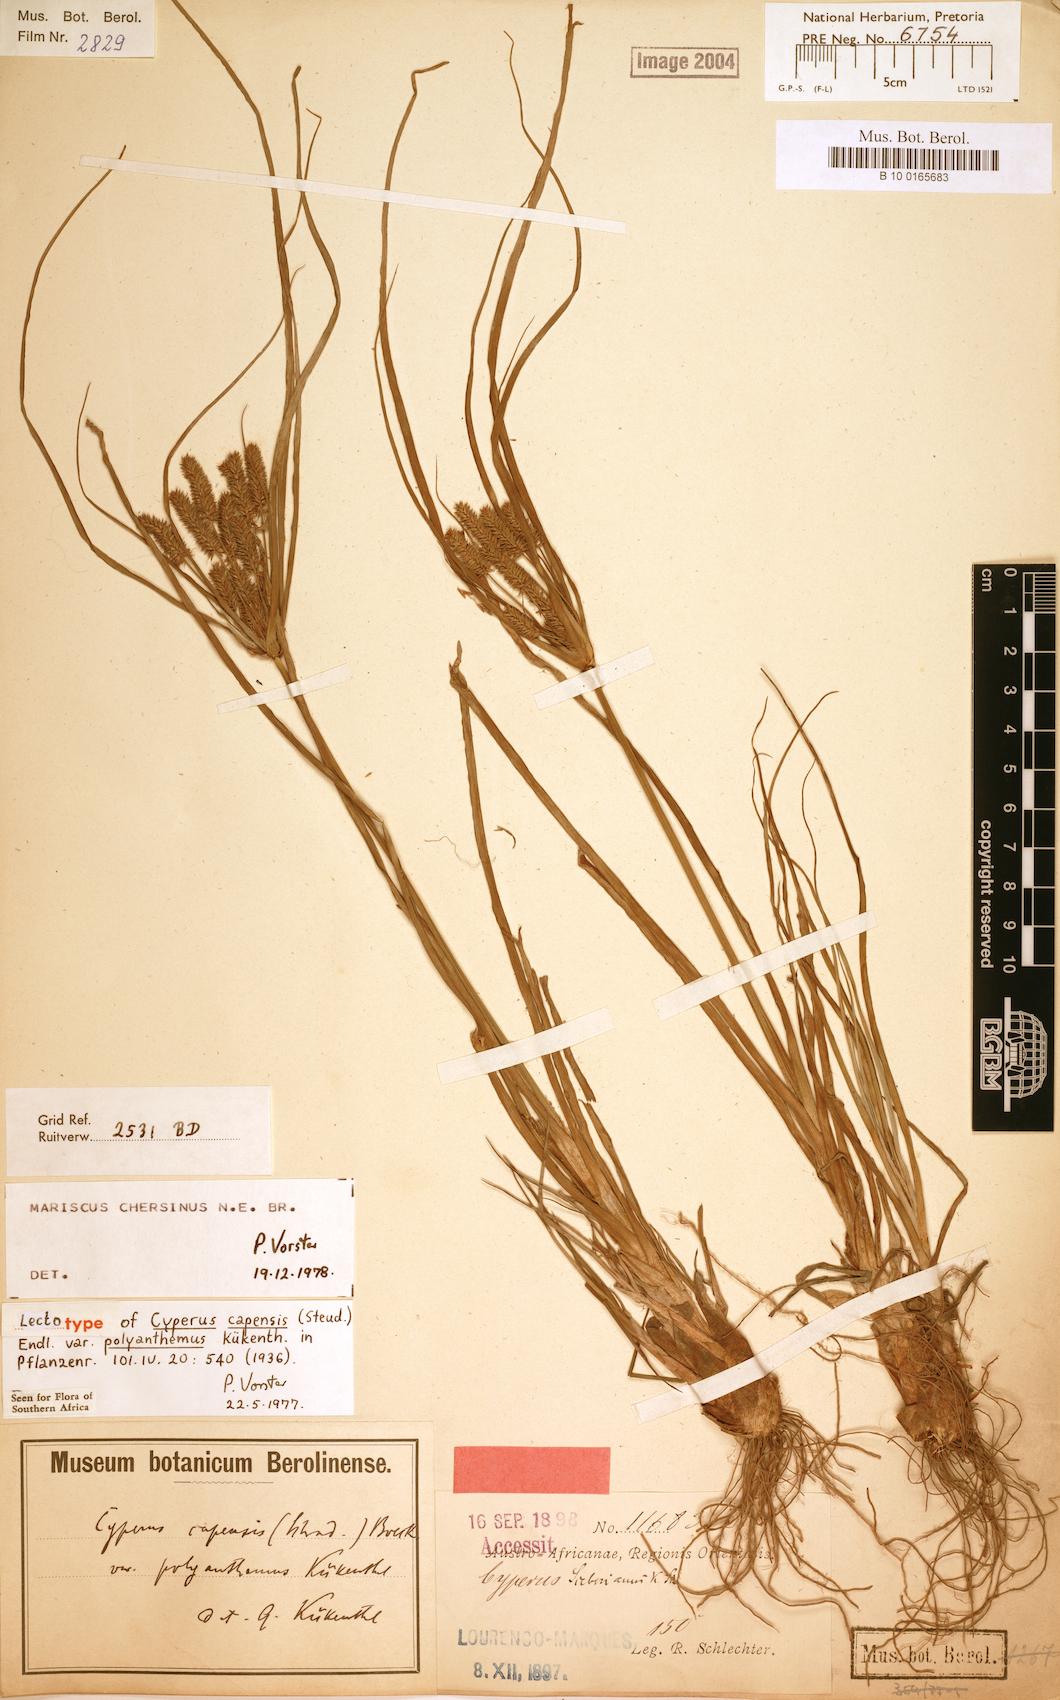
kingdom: Plantae
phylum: Tracheophyta
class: Liliopsida
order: Poales
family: Cyperaceae
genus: Cyperus
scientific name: Cyperus chersinus
